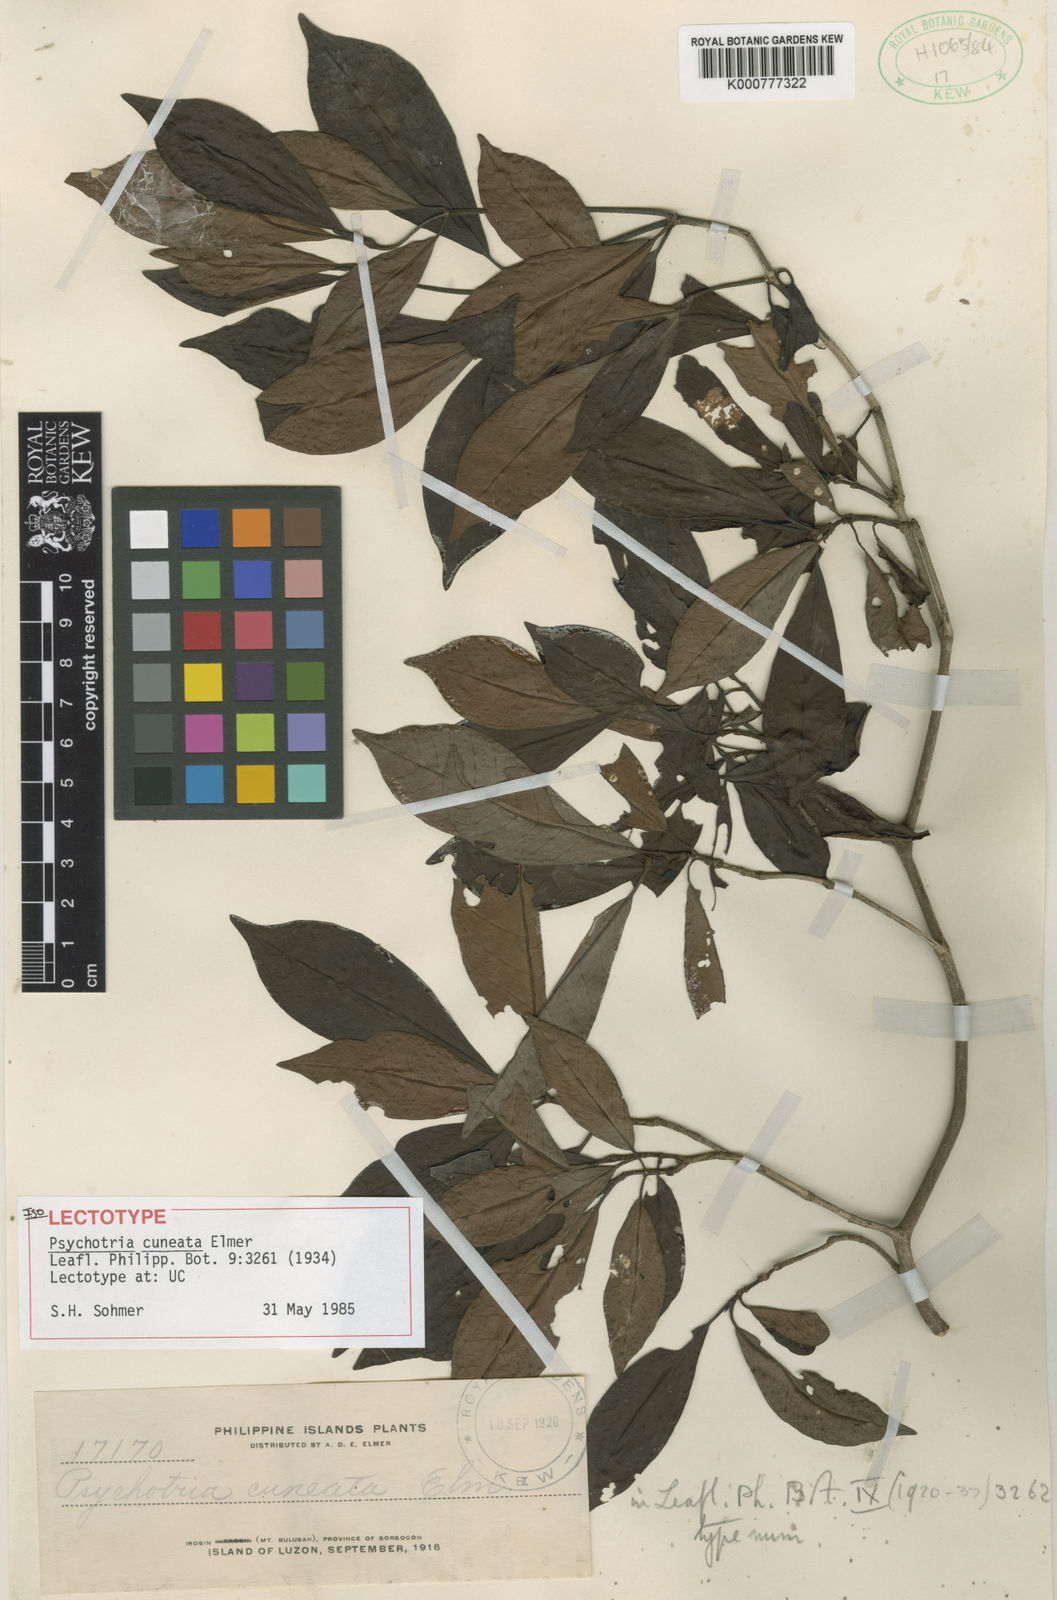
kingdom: Plantae
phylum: Tracheophyta
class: Magnoliopsida
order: Gentianales
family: Rubiaceae
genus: Psychotria
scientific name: Psychotria cuneata
